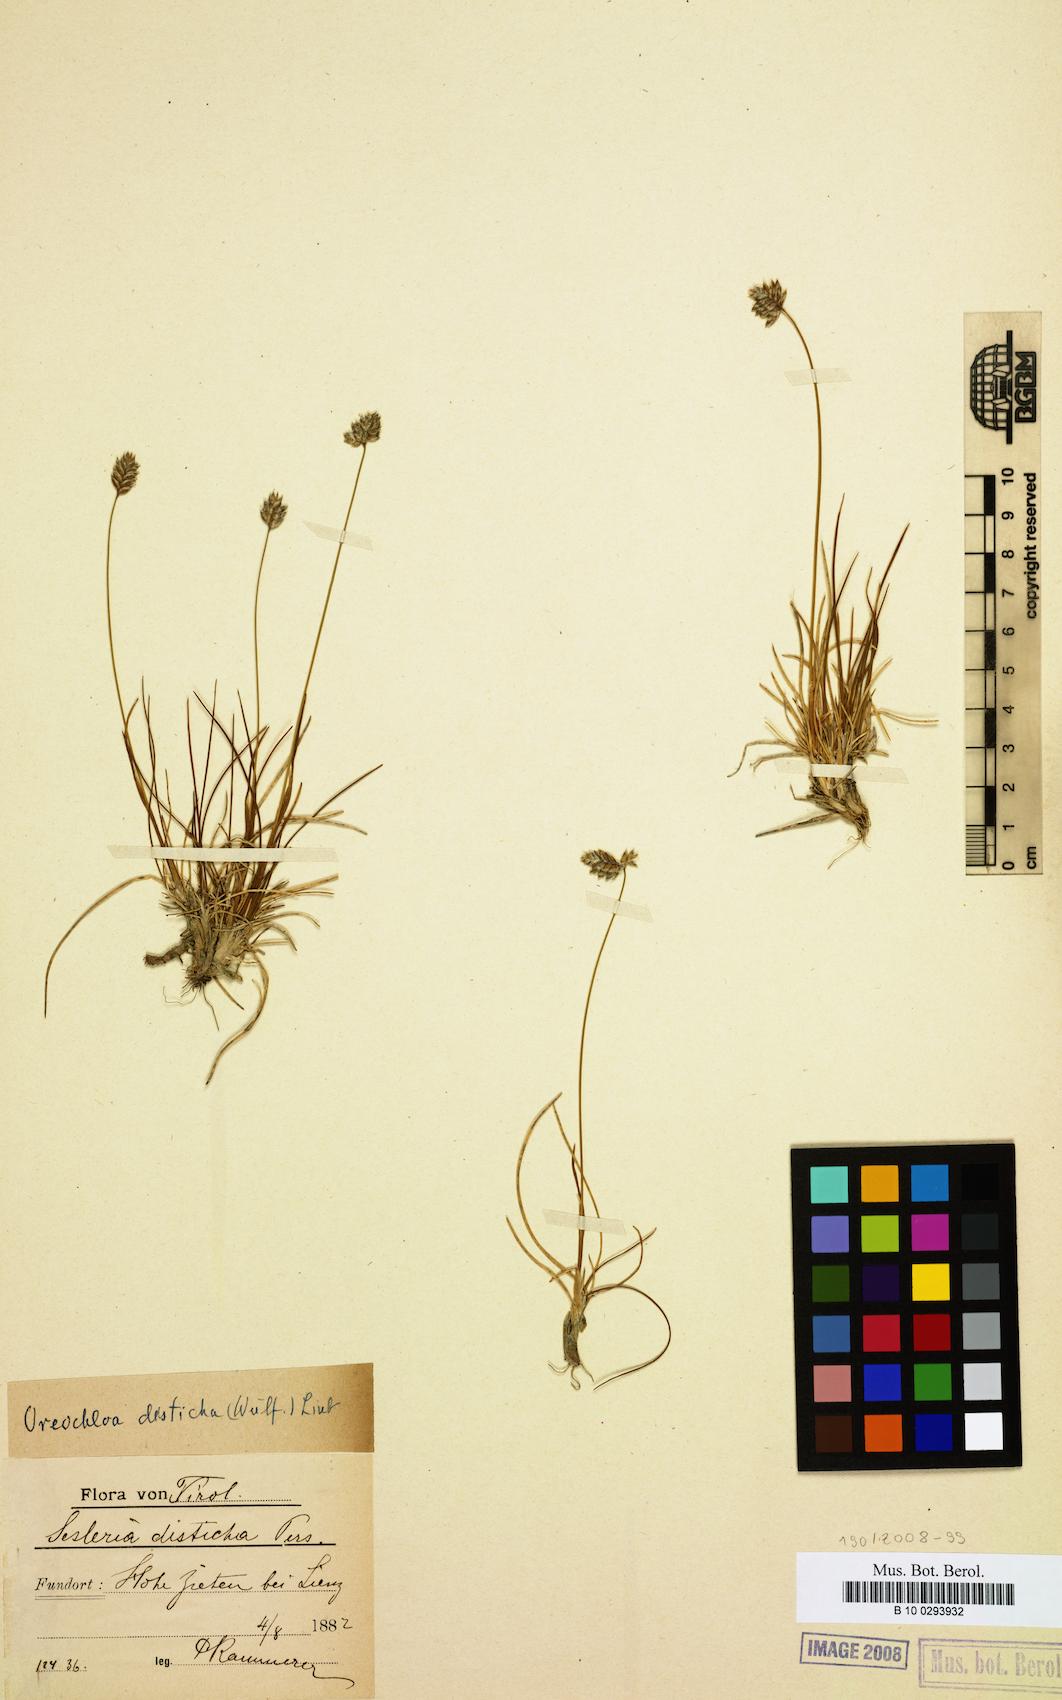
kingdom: Plantae
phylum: Tracheophyta
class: Liliopsida
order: Poales
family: Poaceae
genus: Oreochloa
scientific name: Oreochloa disticha
